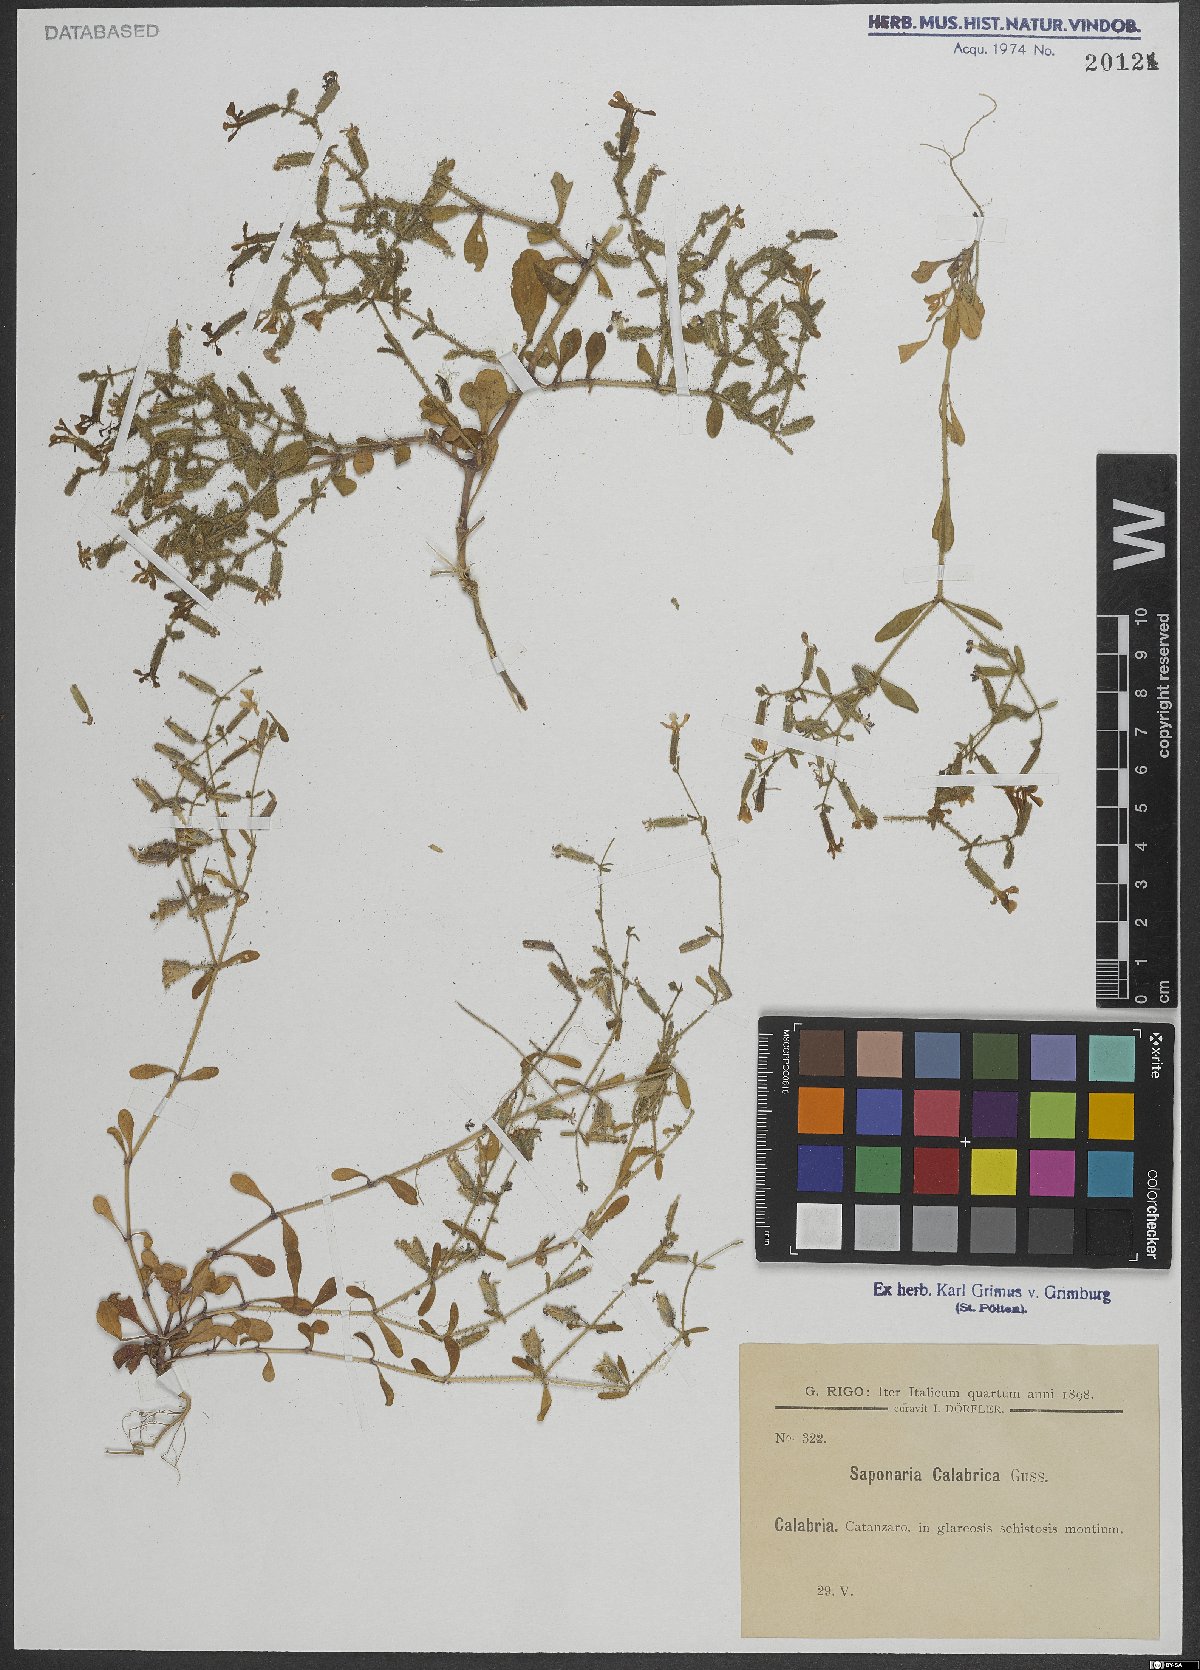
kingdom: Plantae
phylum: Tracheophyta
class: Magnoliopsida
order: Caryophyllales
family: Caryophyllaceae
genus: Saponaria
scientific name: Saponaria calabrica
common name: Adriatic soapwort
